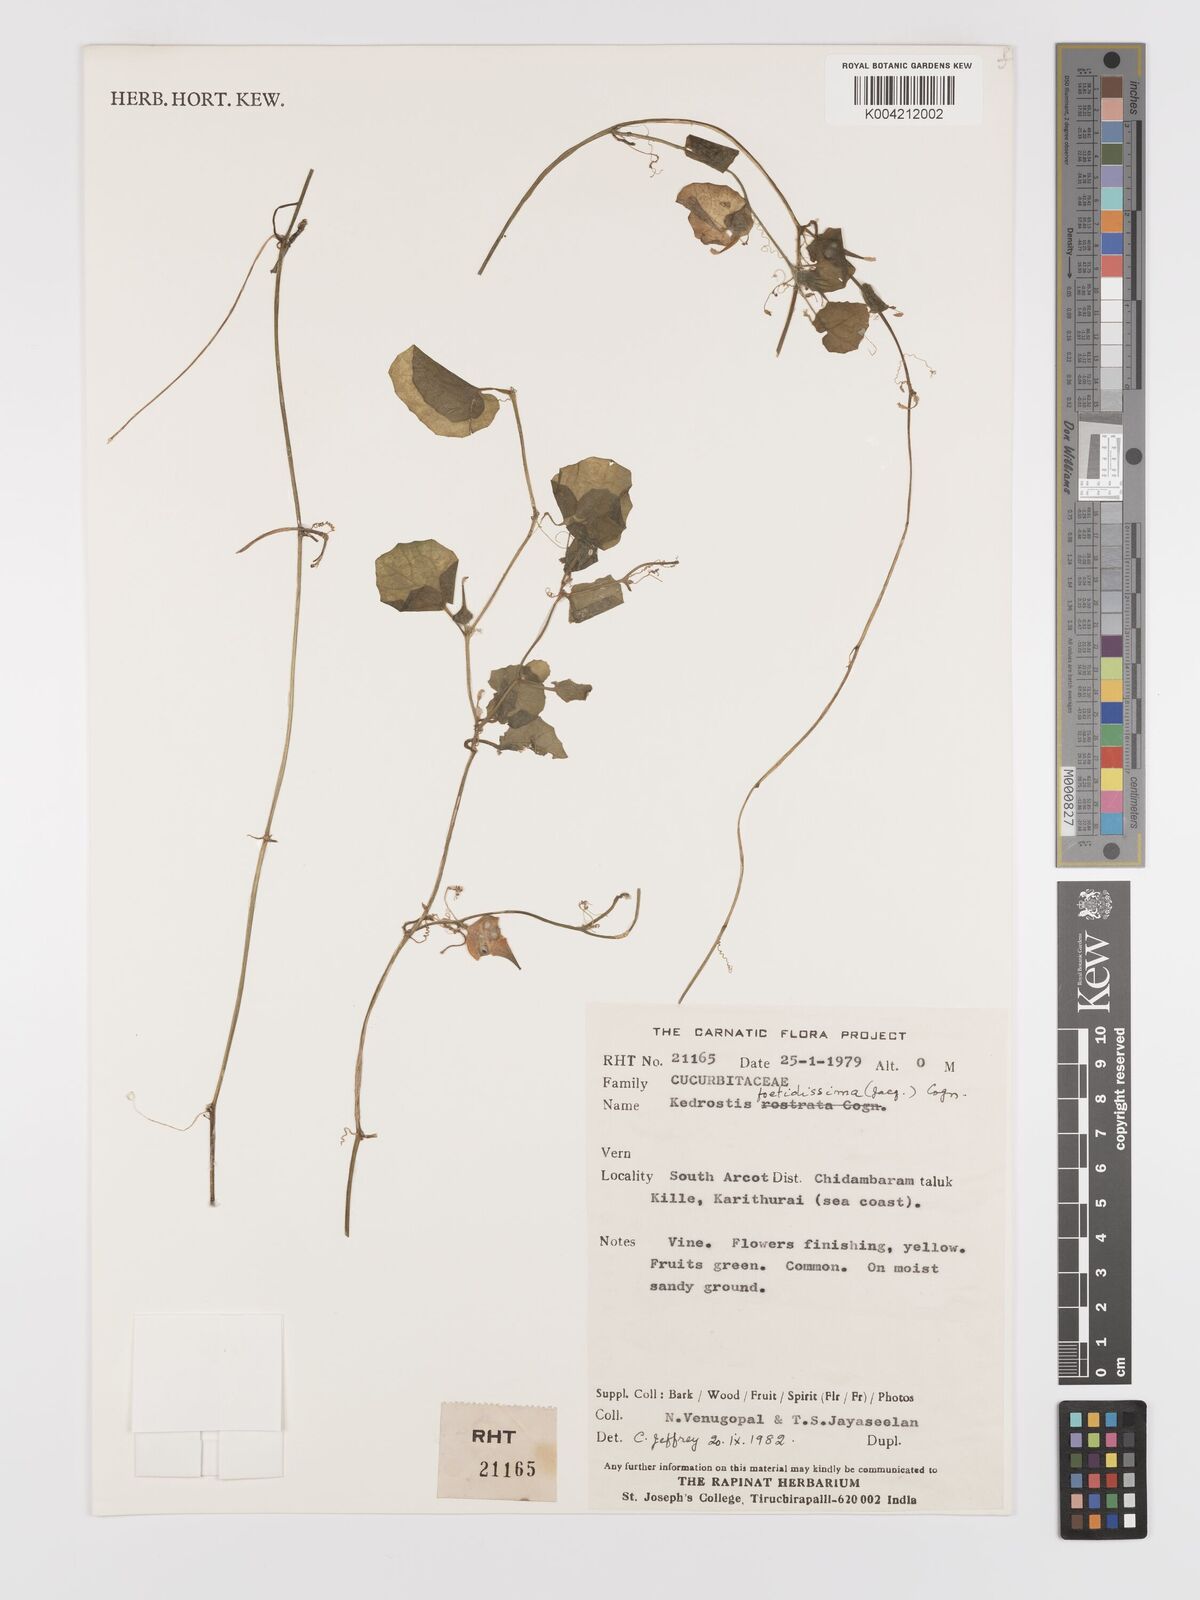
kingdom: Plantae
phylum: Tracheophyta
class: Magnoliopsida
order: Cucurbitales
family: Cucurbitaceae
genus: Kedrostis
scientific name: Kedrostis foetidissima
